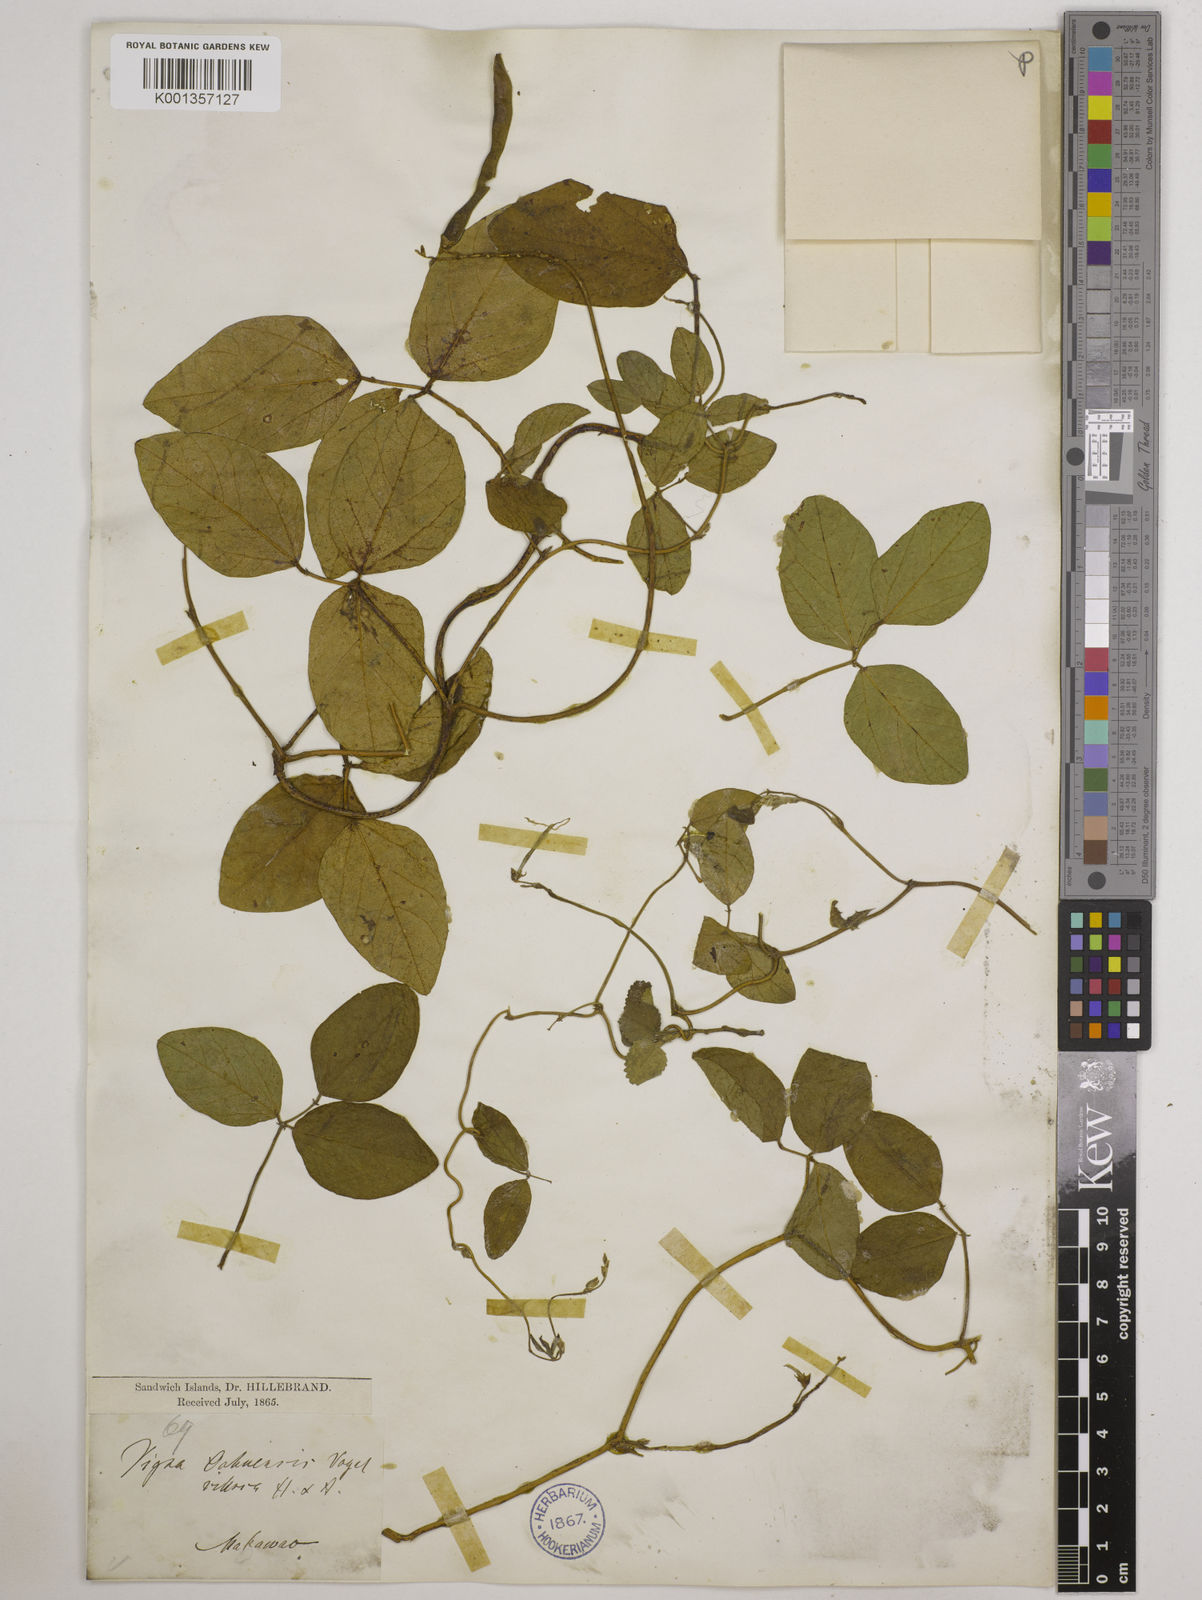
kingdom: Plantae
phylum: Tracheophyta
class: Magnoliopsida
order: Fabales
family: Fabaceae
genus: Vigna
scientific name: Vigna
